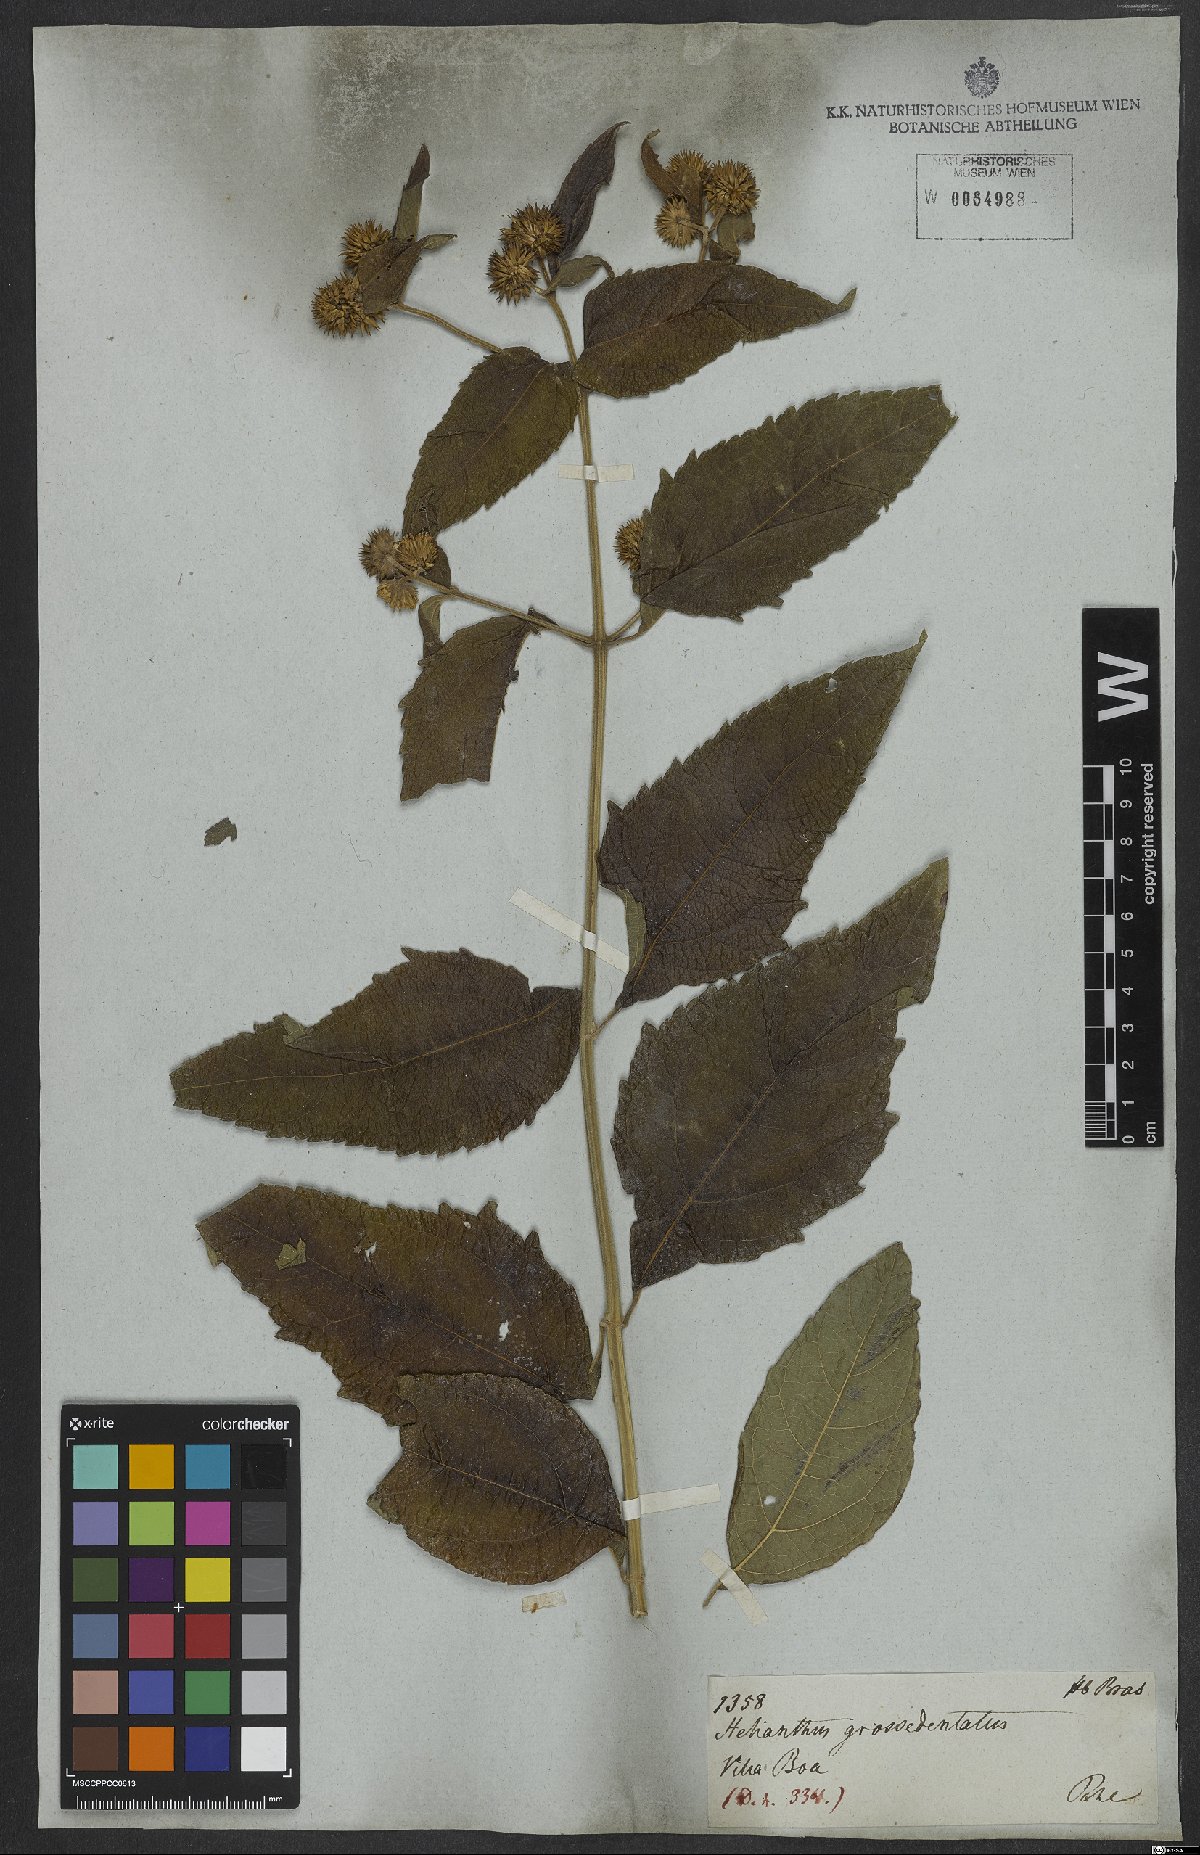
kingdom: Plantae
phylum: Tracheophyta
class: Magnoliopsida
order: Asterales
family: Asteraceae
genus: Tilesia
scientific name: Tilesia baccata
